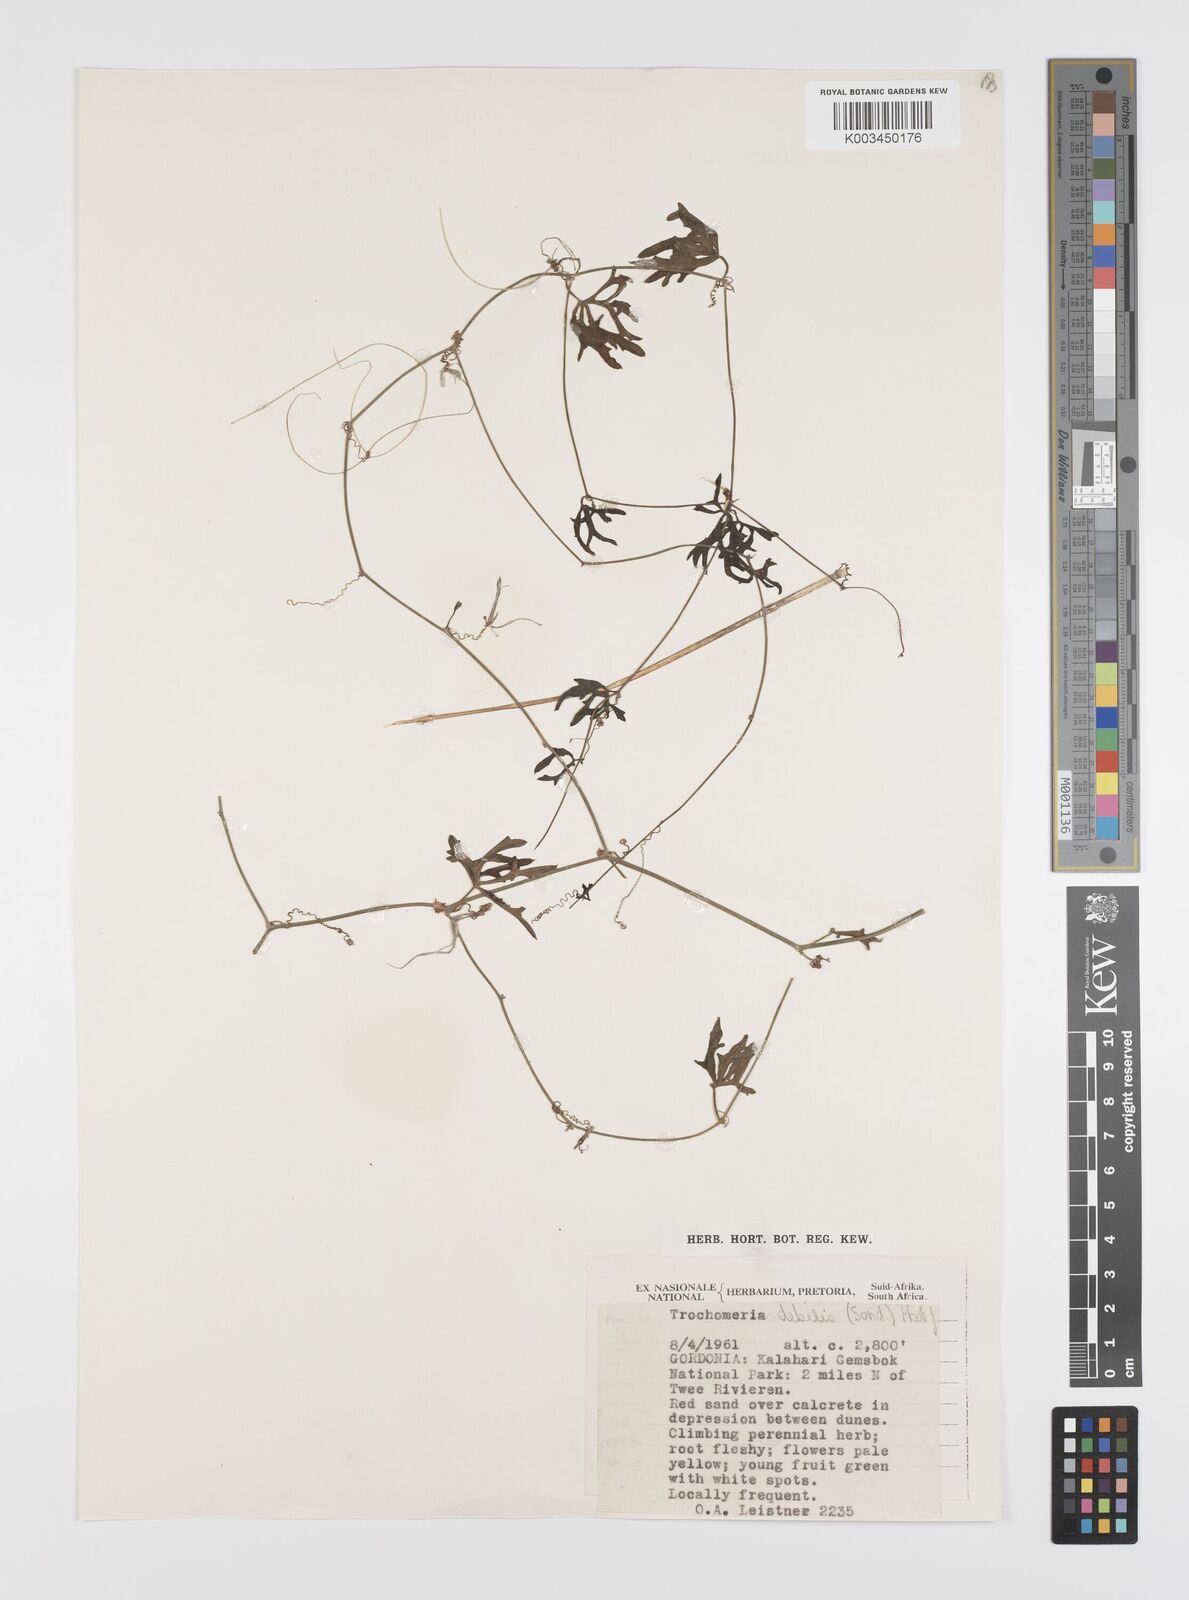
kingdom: Plantae
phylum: Tracheophyta
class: Magnoliopsida
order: Cucurbitales
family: Cucurbitaceae
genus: Trochomeria
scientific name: Trochomeria debilis
